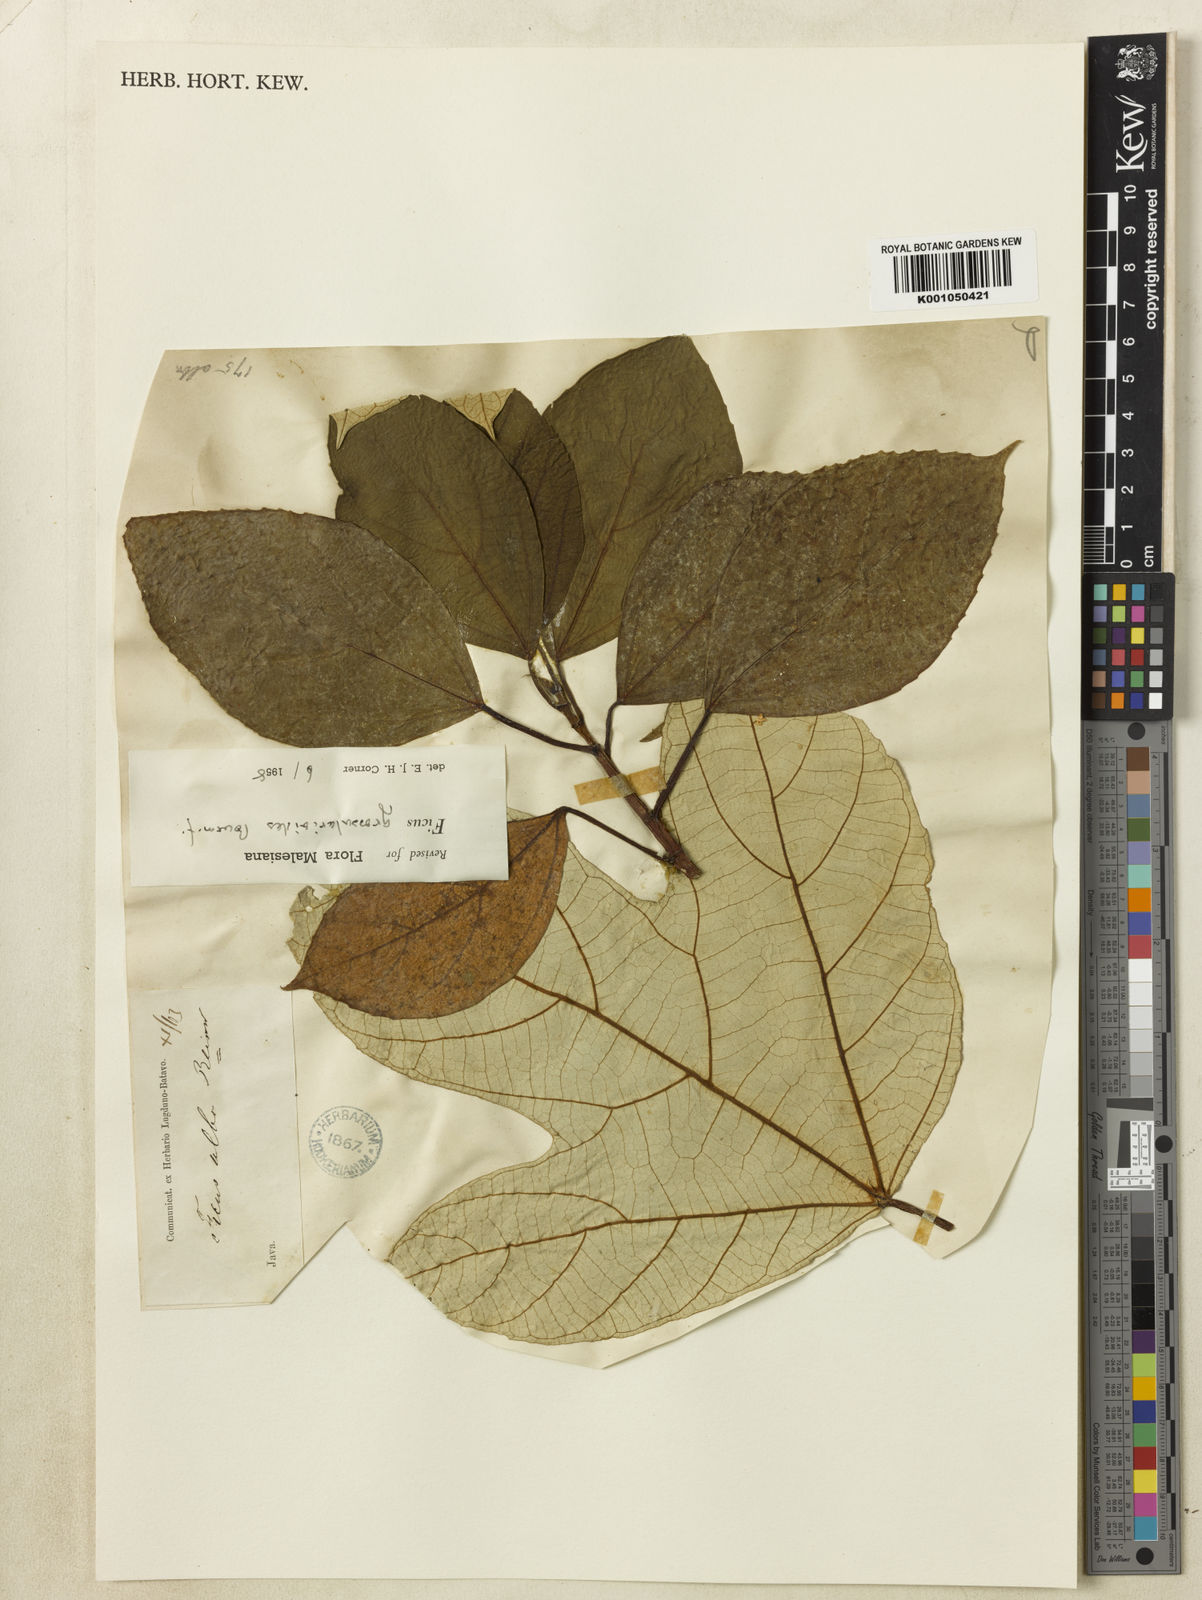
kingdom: Plantae
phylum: Tracheophyta
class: Magnoliopsida
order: Rosales
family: Moraceae
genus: Ficus
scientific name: Ficus grossularioides
